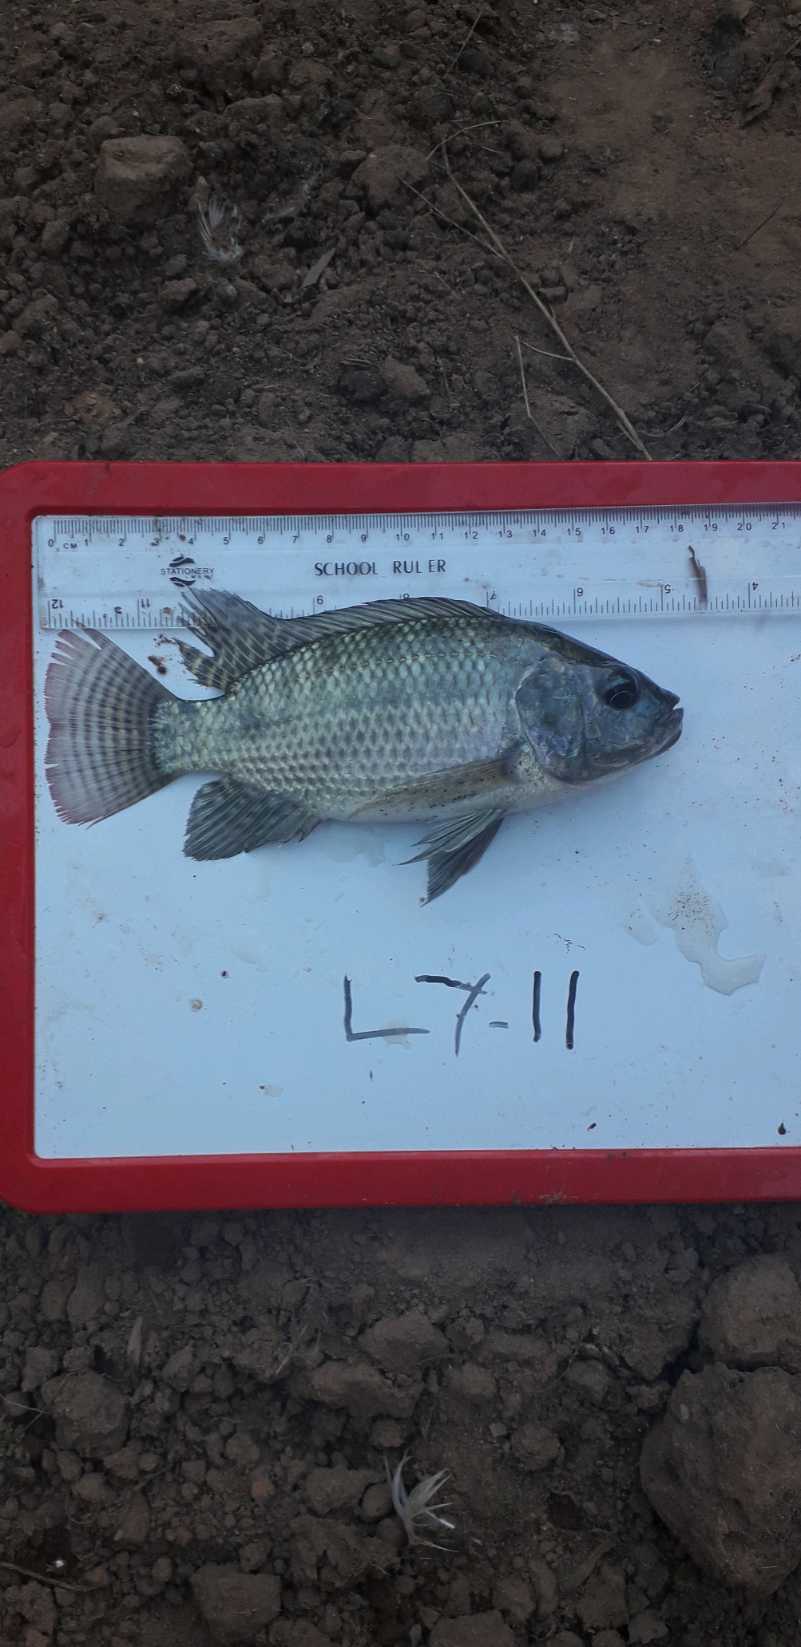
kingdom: Animalia
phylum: Chordata
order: Perciformes
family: Cichlidae
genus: Oreochromis
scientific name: Oreochromis niloticus
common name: Nile tilapia
